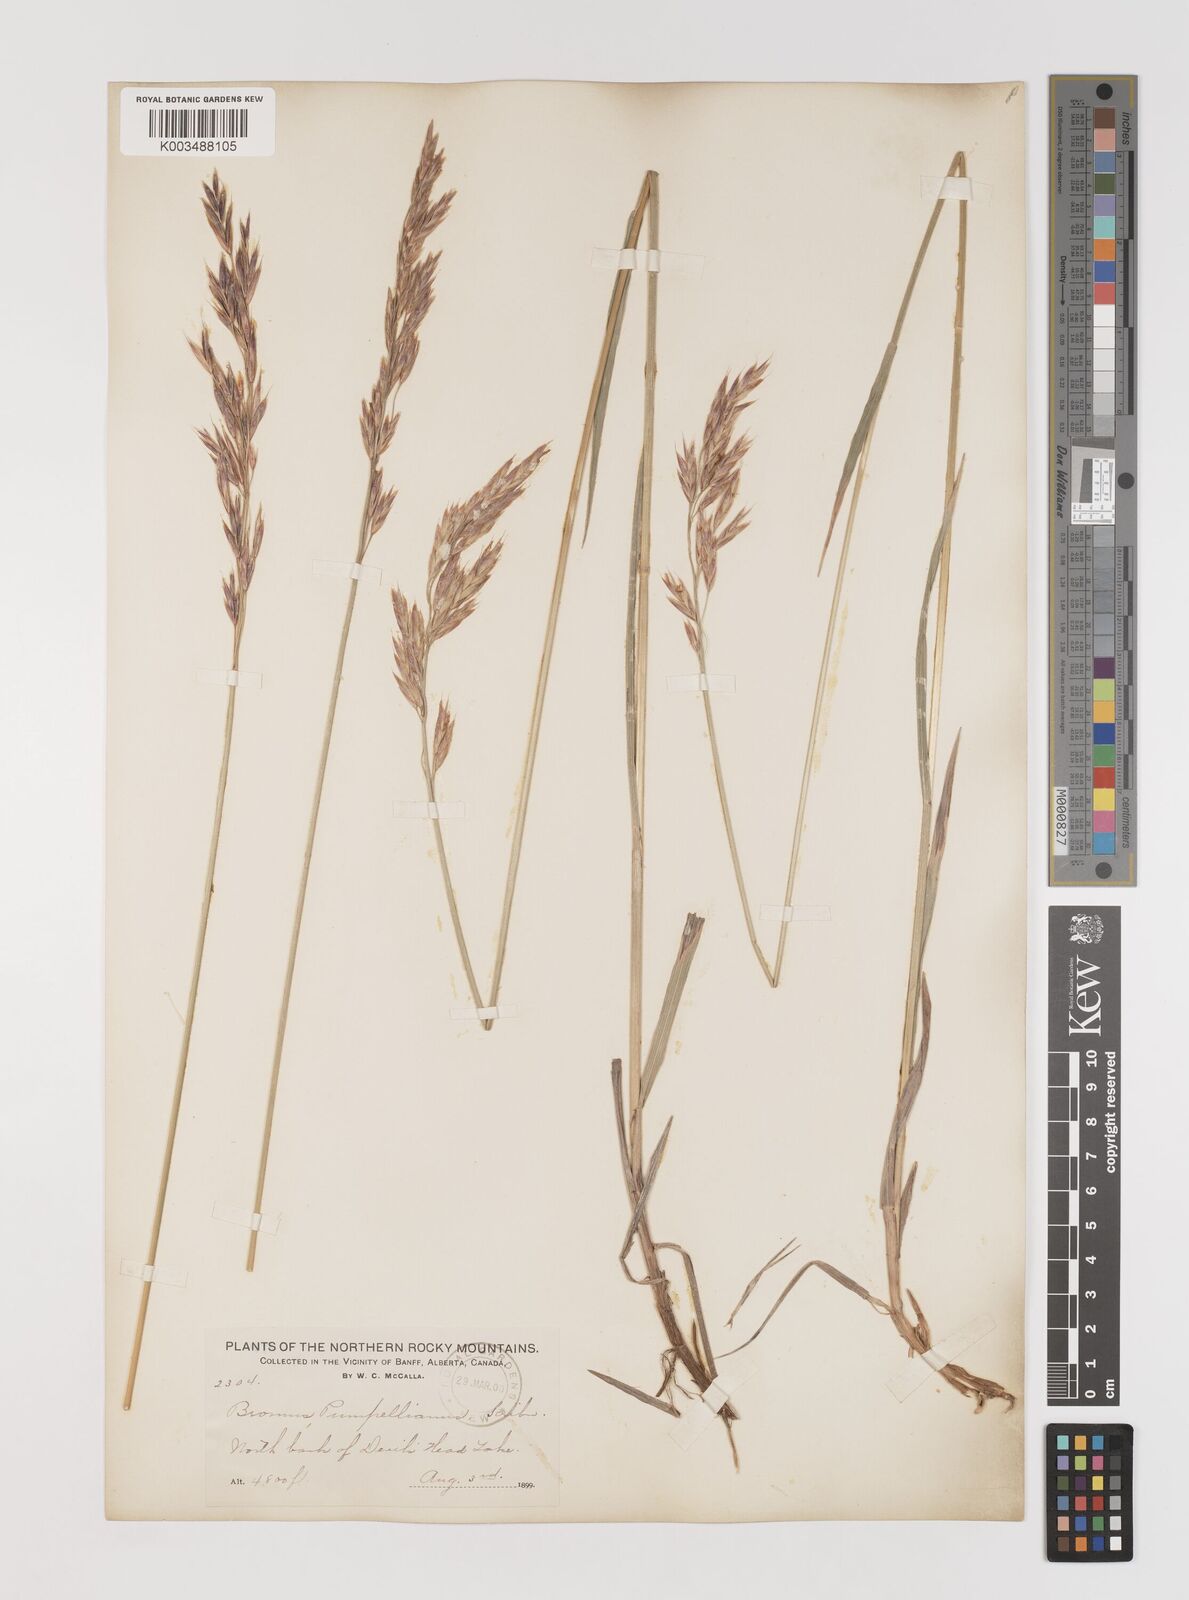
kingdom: Plantae
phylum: Tracheophyta
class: Liliopsida
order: Poales
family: Poaceae
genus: Bromus
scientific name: Bromus pumpellianus
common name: Pumpelly's brome
